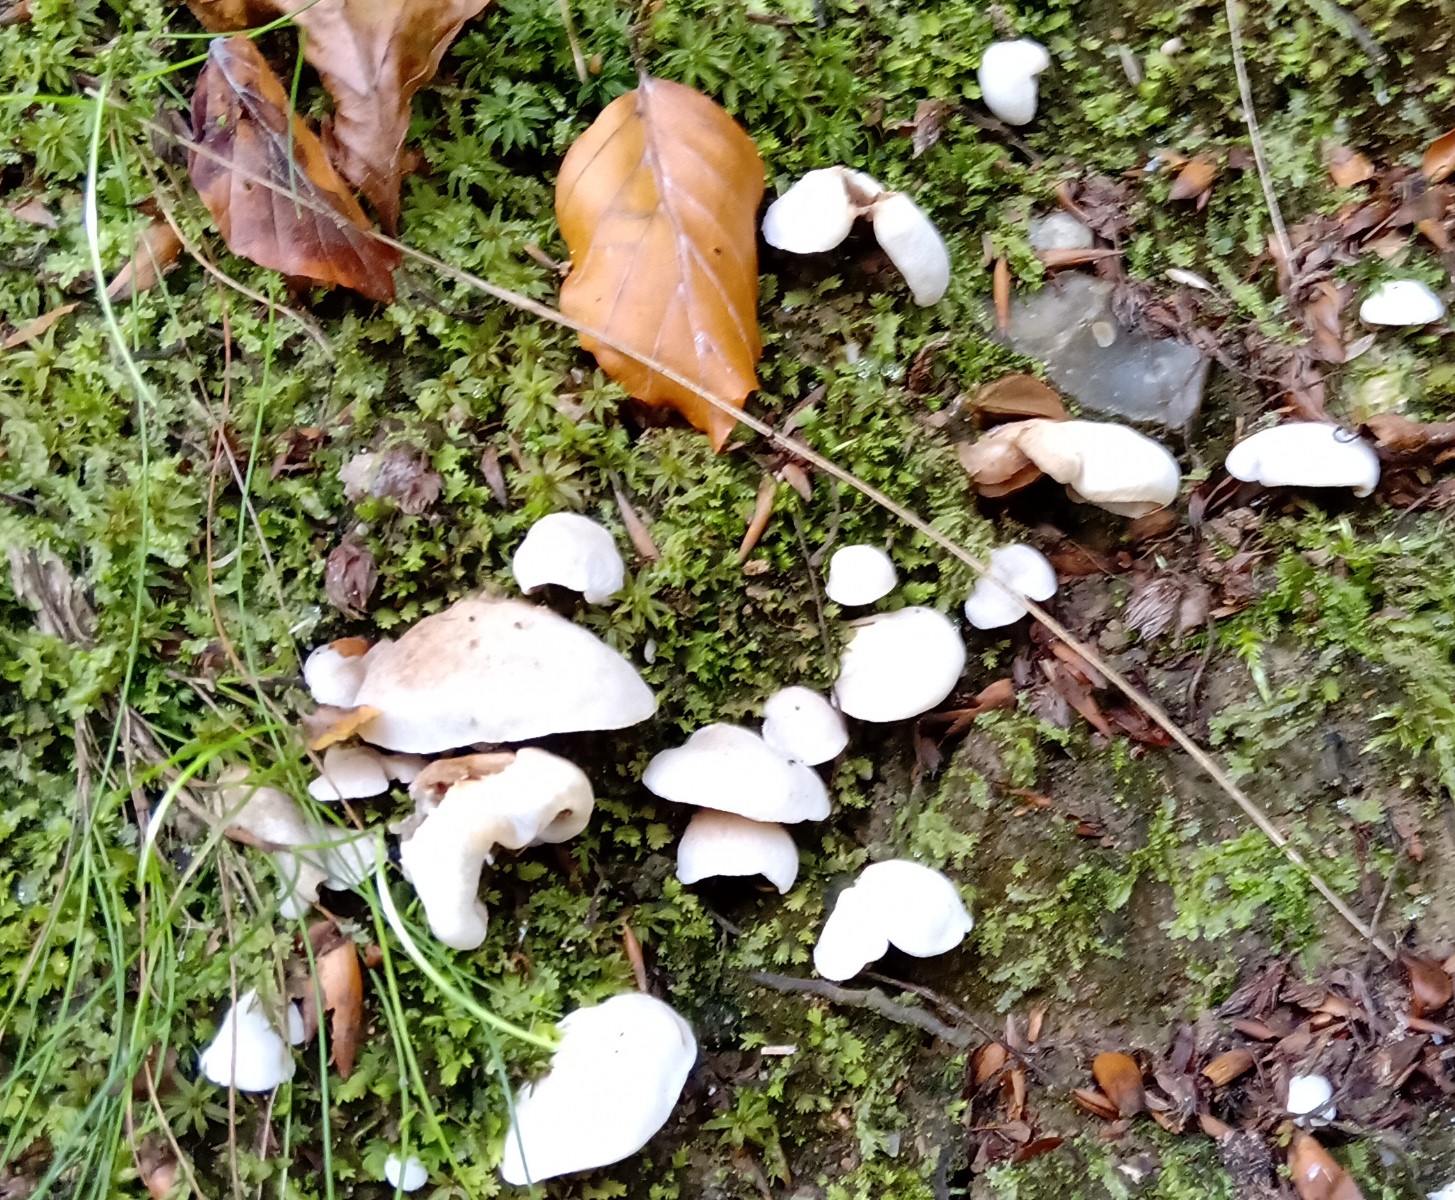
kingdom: Fungi
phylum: Basidiomycota
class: Agaricomycetes
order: Agaricales
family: Crepidotaceae
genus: Crepidotus
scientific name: Crepidotus autochthonus
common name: skæv muslingesvamp
